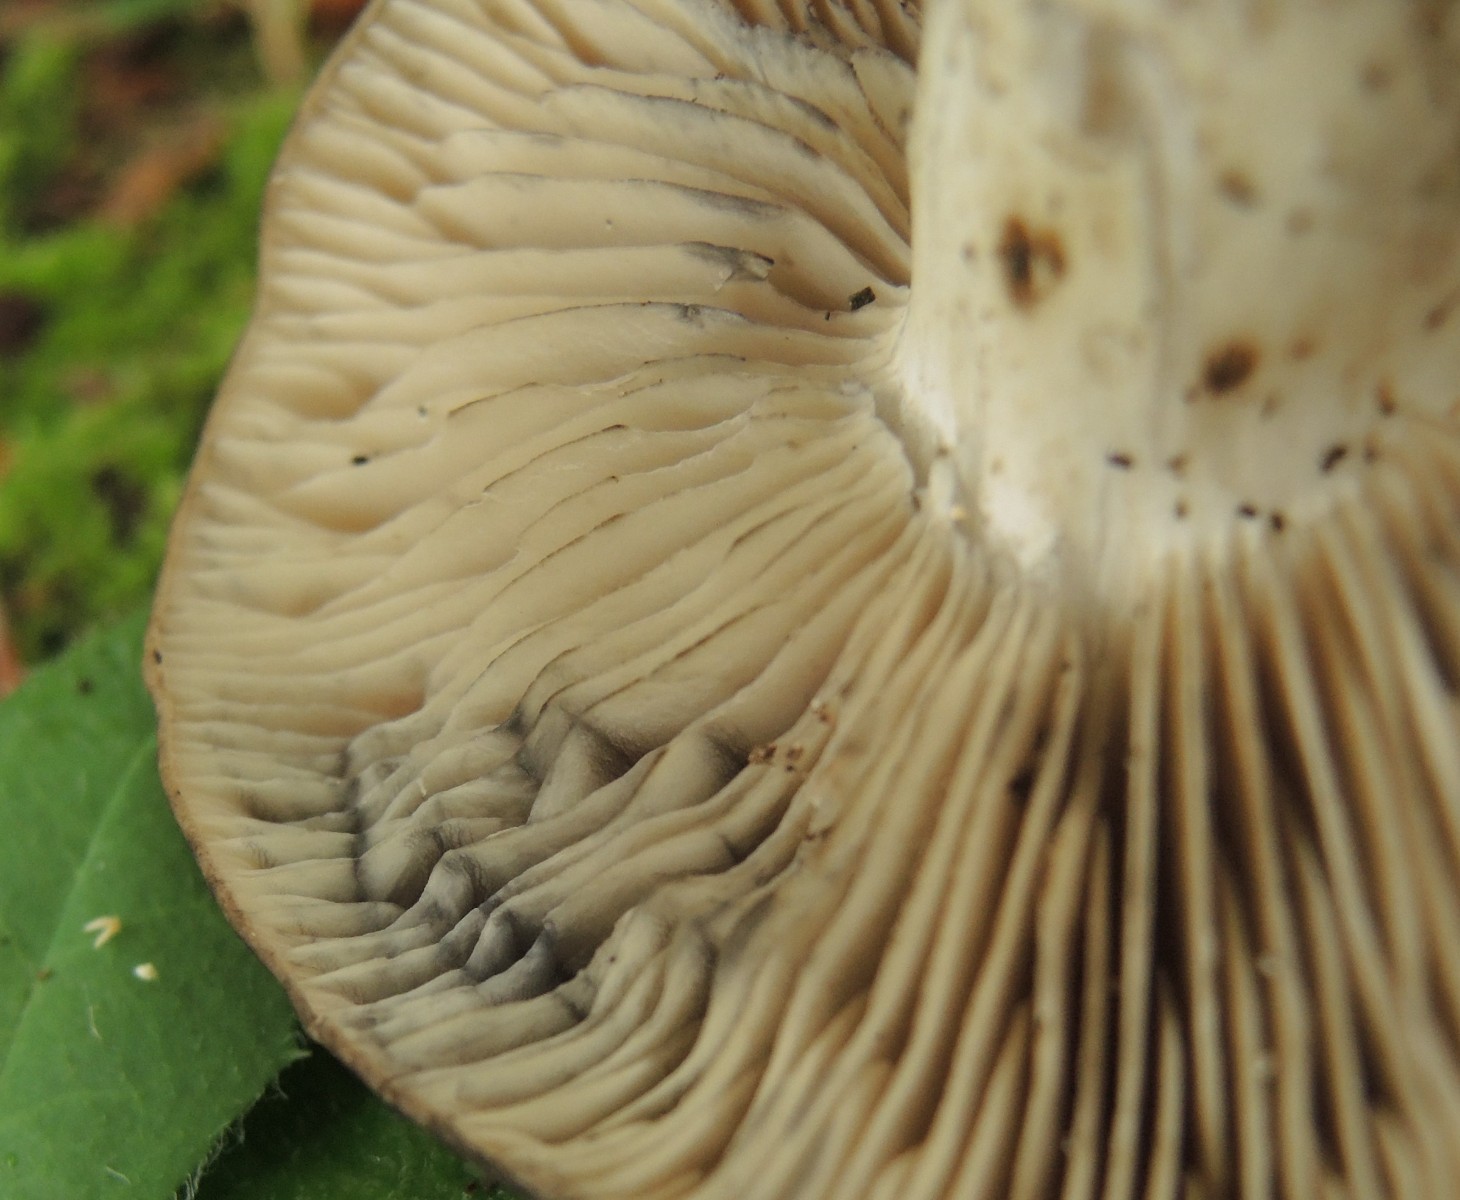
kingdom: Fungi
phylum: Basidiomycota
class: Agaricomycetes
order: Agaricales
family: Lyophyllaceae
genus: Lyophyllum
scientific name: Lyophyllum eustygium
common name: tykbladet gråblad
